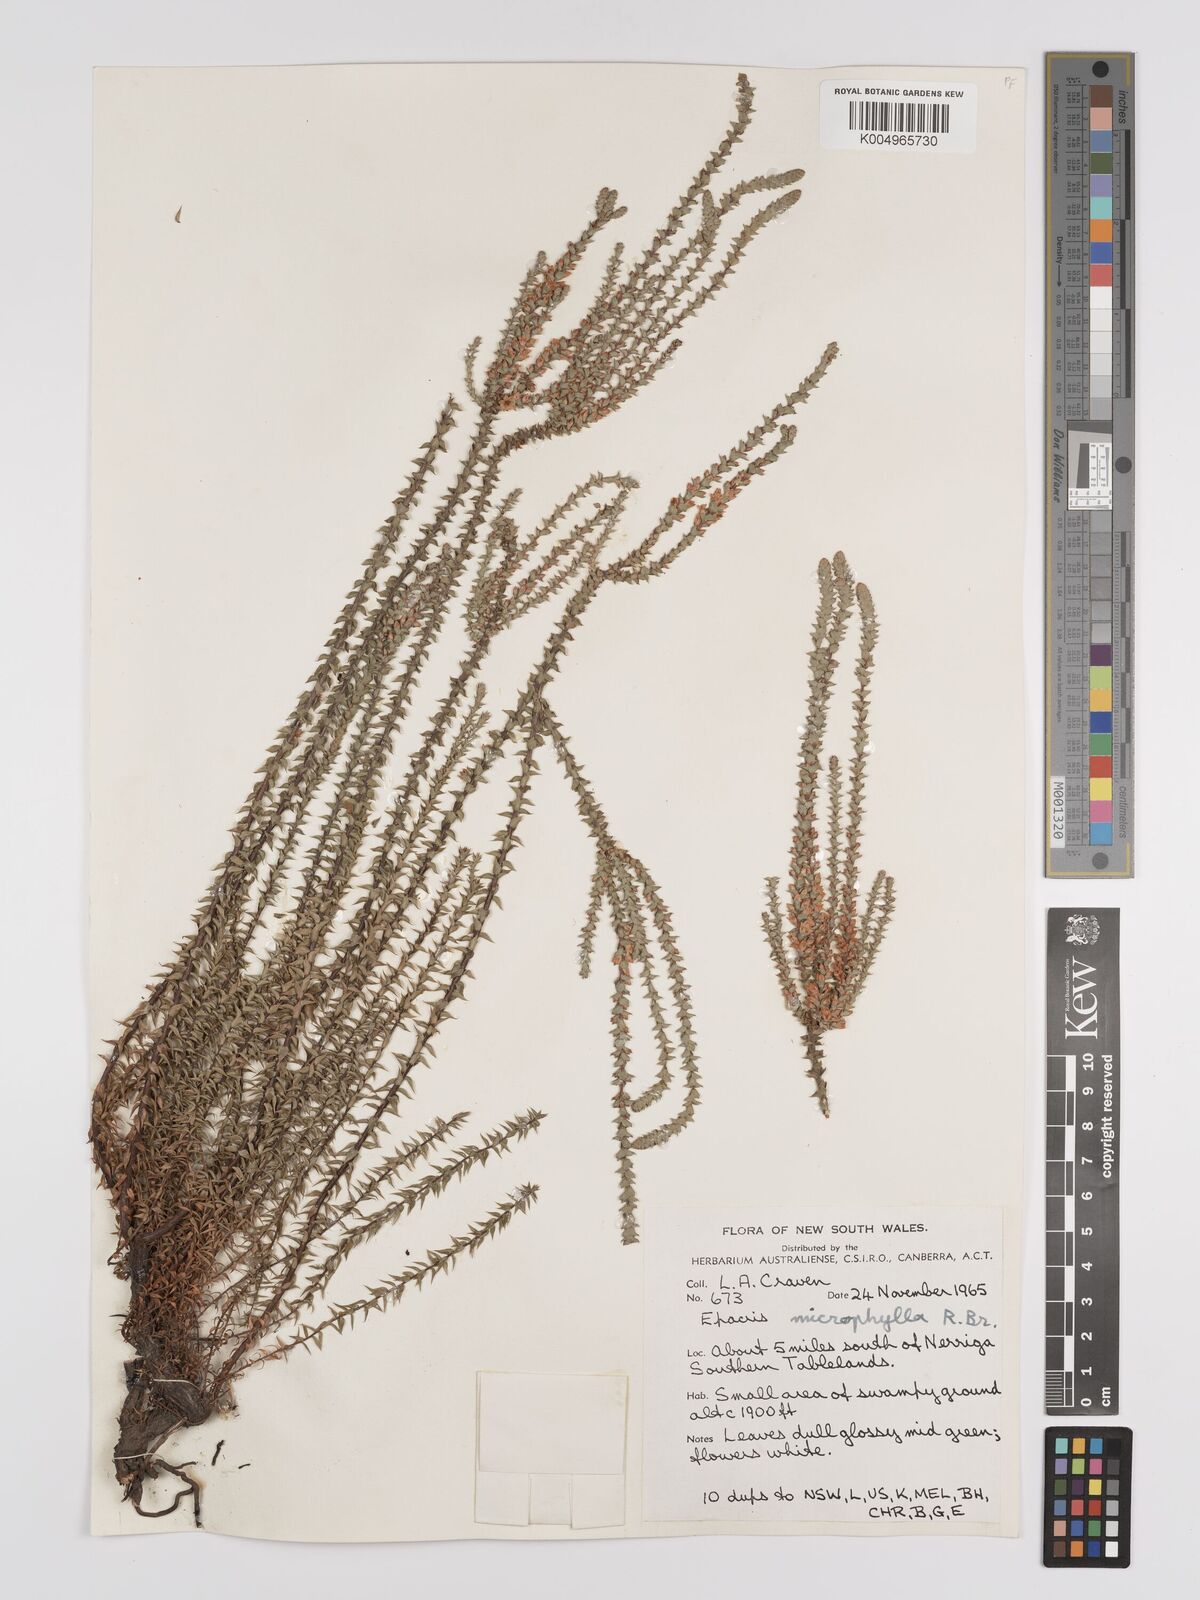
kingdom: Plantae
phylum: Tracheophyta
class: Magnoliopsida
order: Ericales
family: Ericaceae
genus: Epacris
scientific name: Epacris
